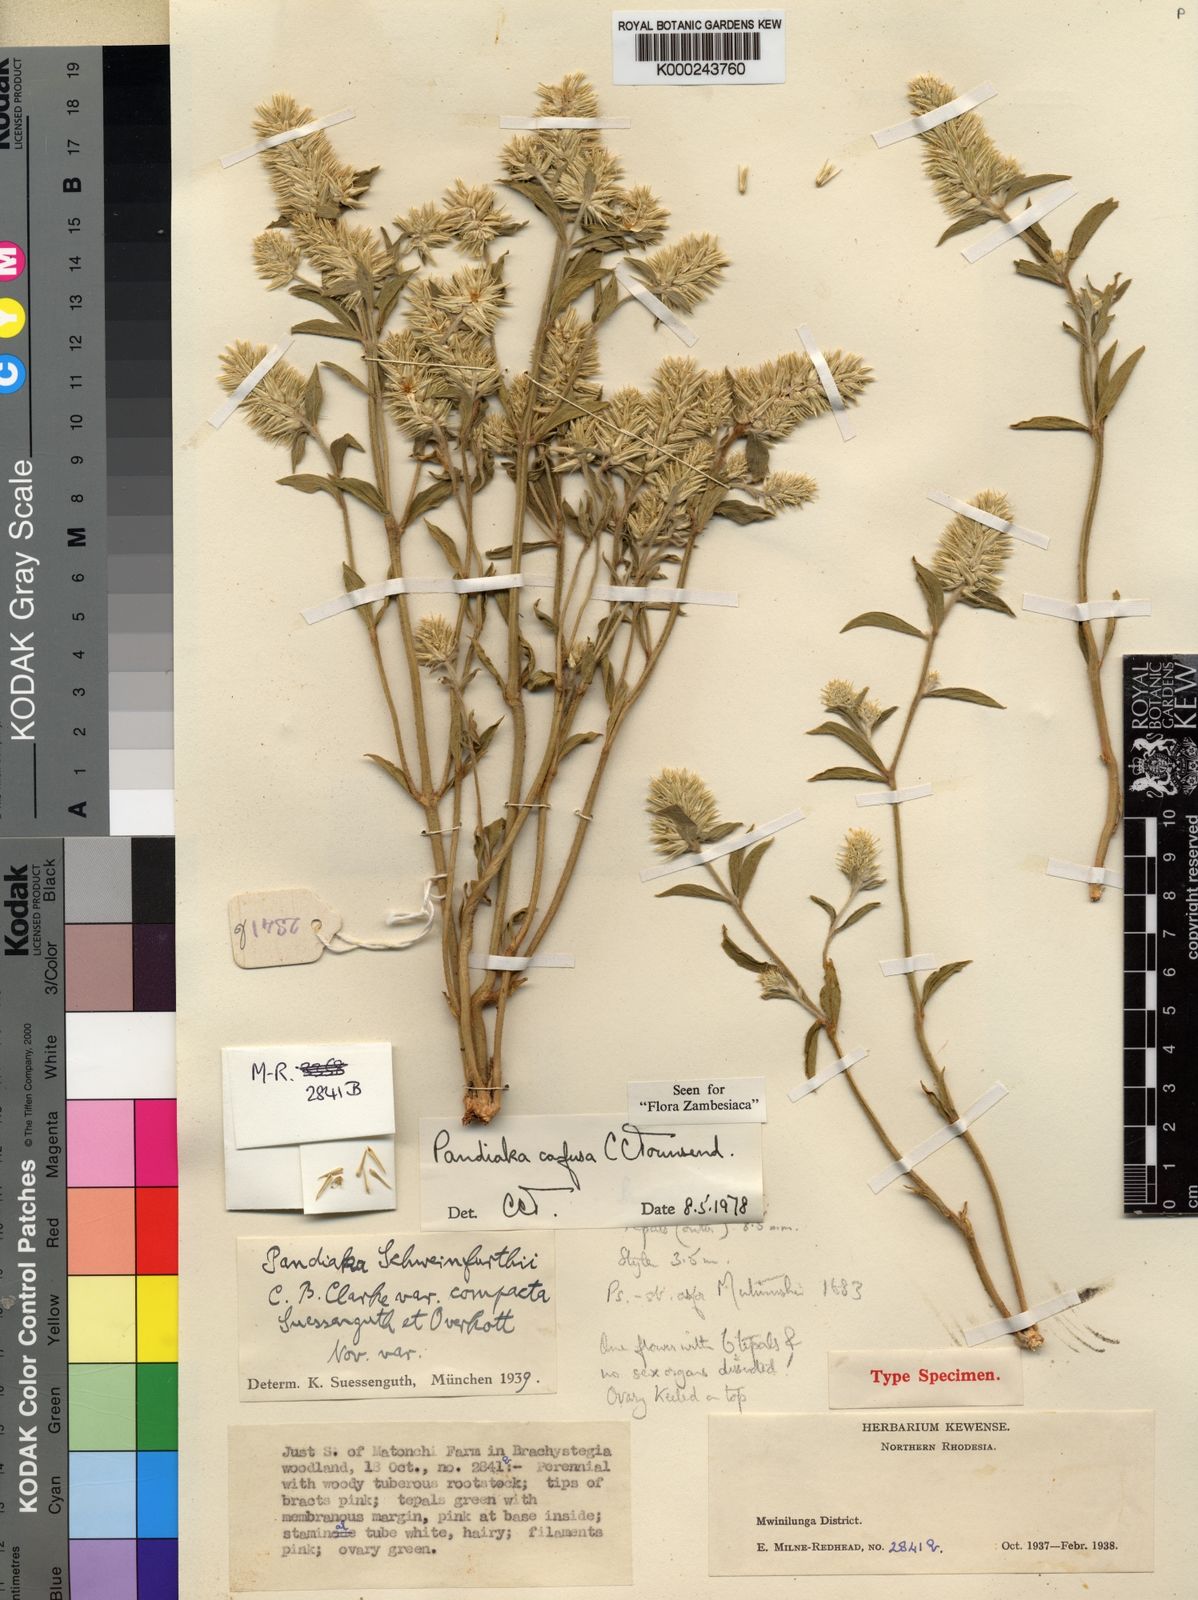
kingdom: Plantae
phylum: Tracheophyta
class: Magnoliopsida
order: Caryophyllales
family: Amaranthaceae
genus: Pandiaka
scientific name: Pandiaka confusa
